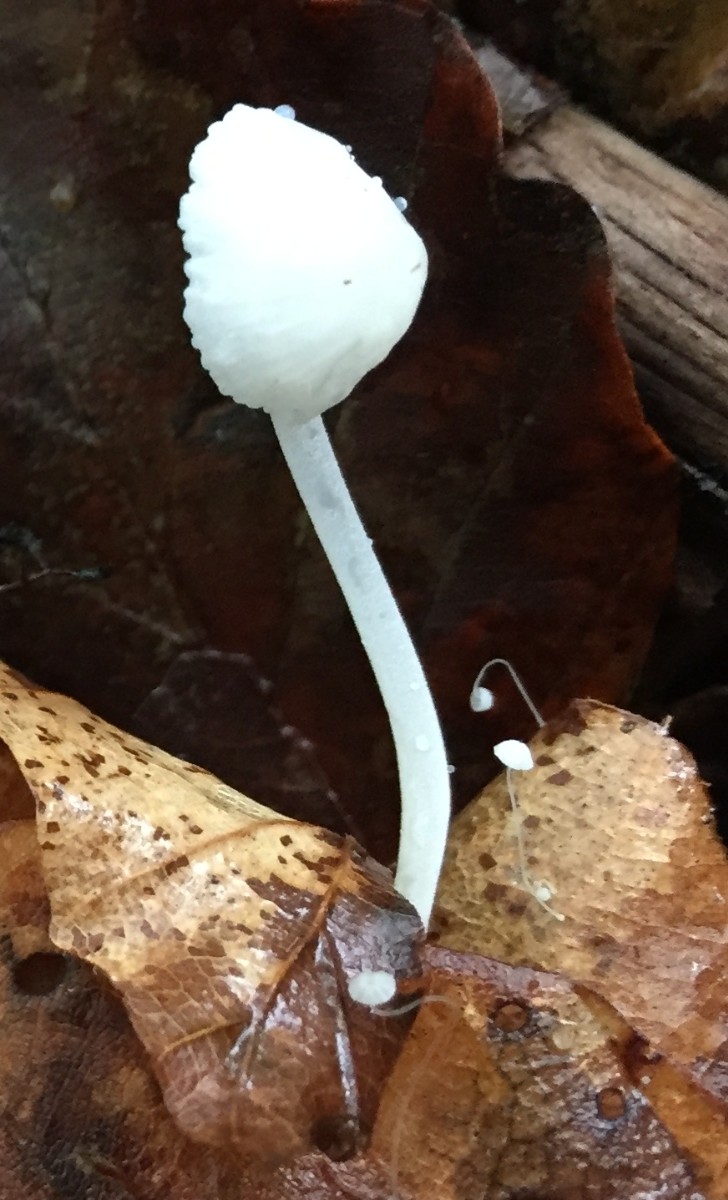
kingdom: Fungi
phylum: Basidiomycota
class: Agaricomycetes
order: Agaricales
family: Mycenaceae
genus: Hemimycena
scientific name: Hemimycena lactea
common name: mælkehvid huesvamp
